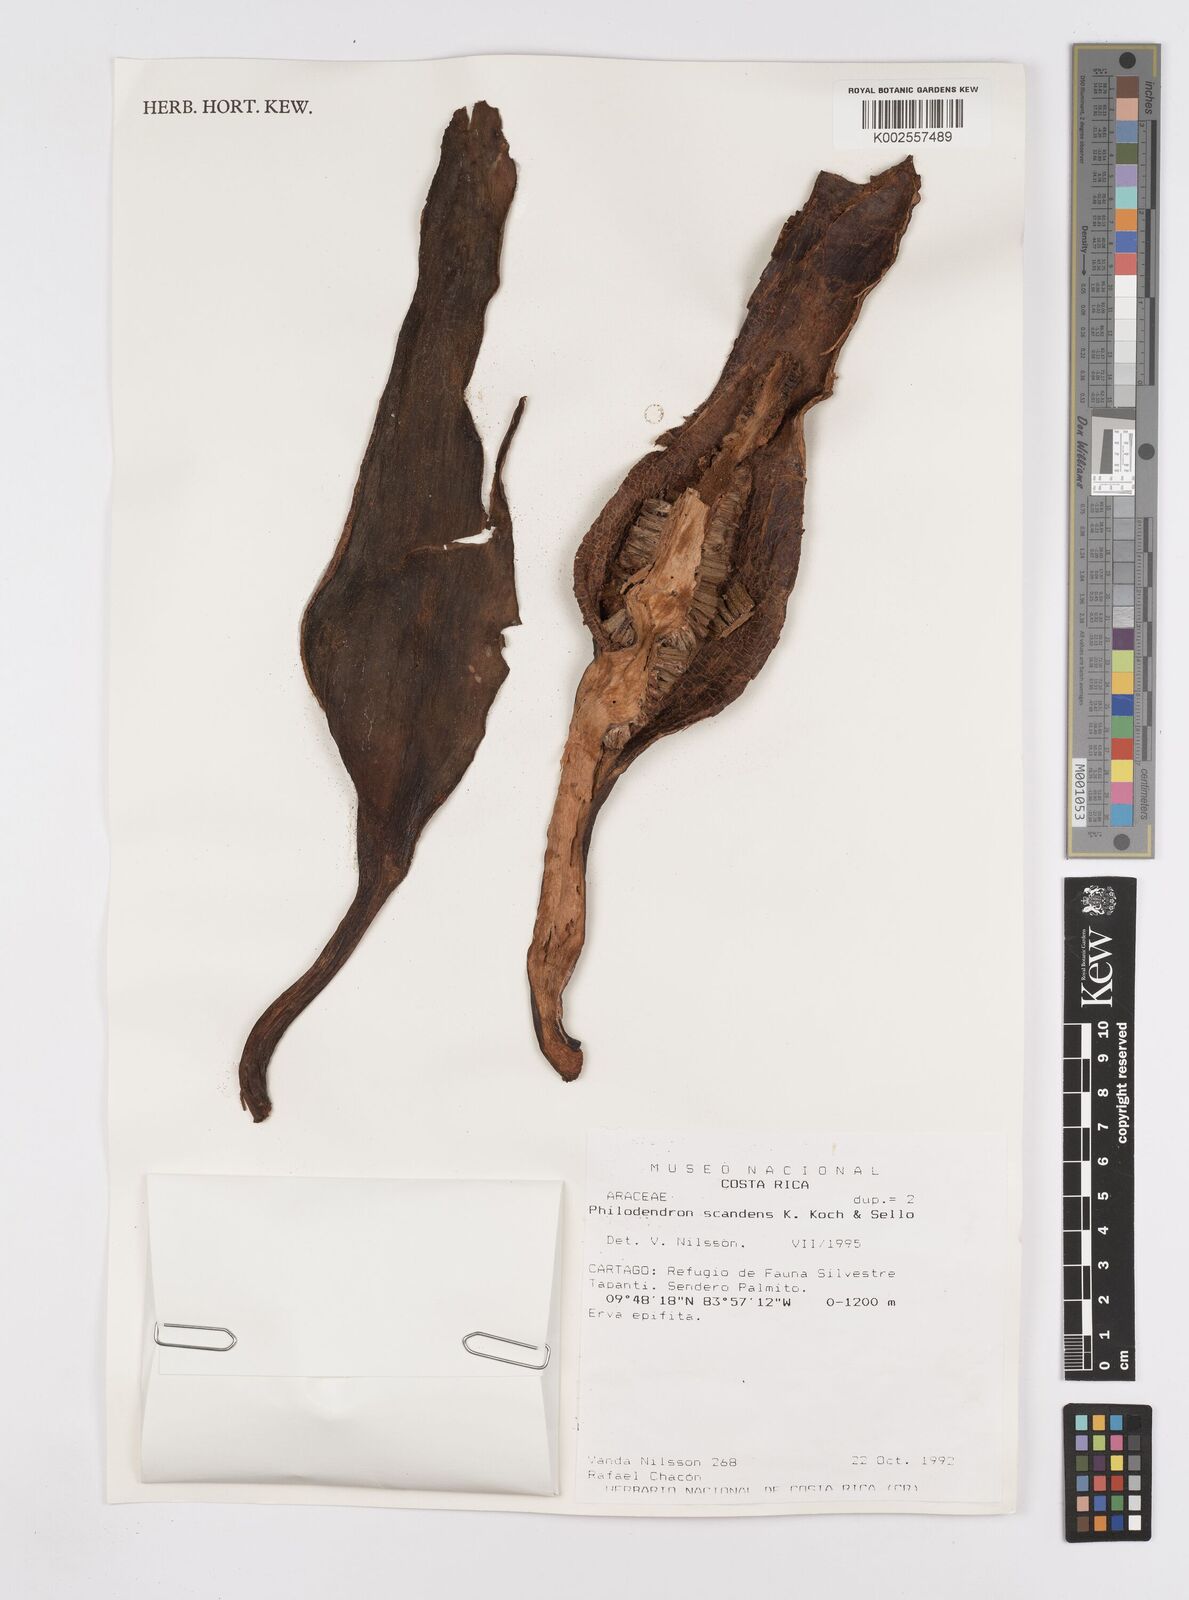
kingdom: Plantae
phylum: Tracheophyta
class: Liliopsida
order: Alismatales
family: Araceae
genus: Philodendron
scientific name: Philodendron hederaceum
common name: Vilevine
